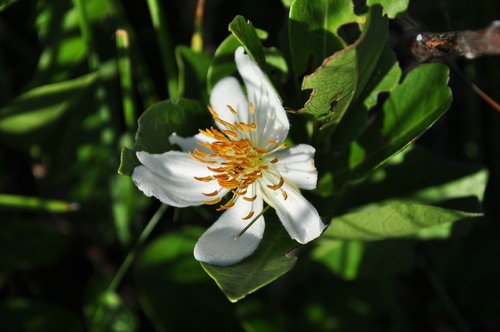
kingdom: Plantae
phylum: Tracheophyta
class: Magnoliopsida
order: Malpighiales
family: Achariaceae
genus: Xylotheca
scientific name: Xylotheca kraussiana
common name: African dog rose
